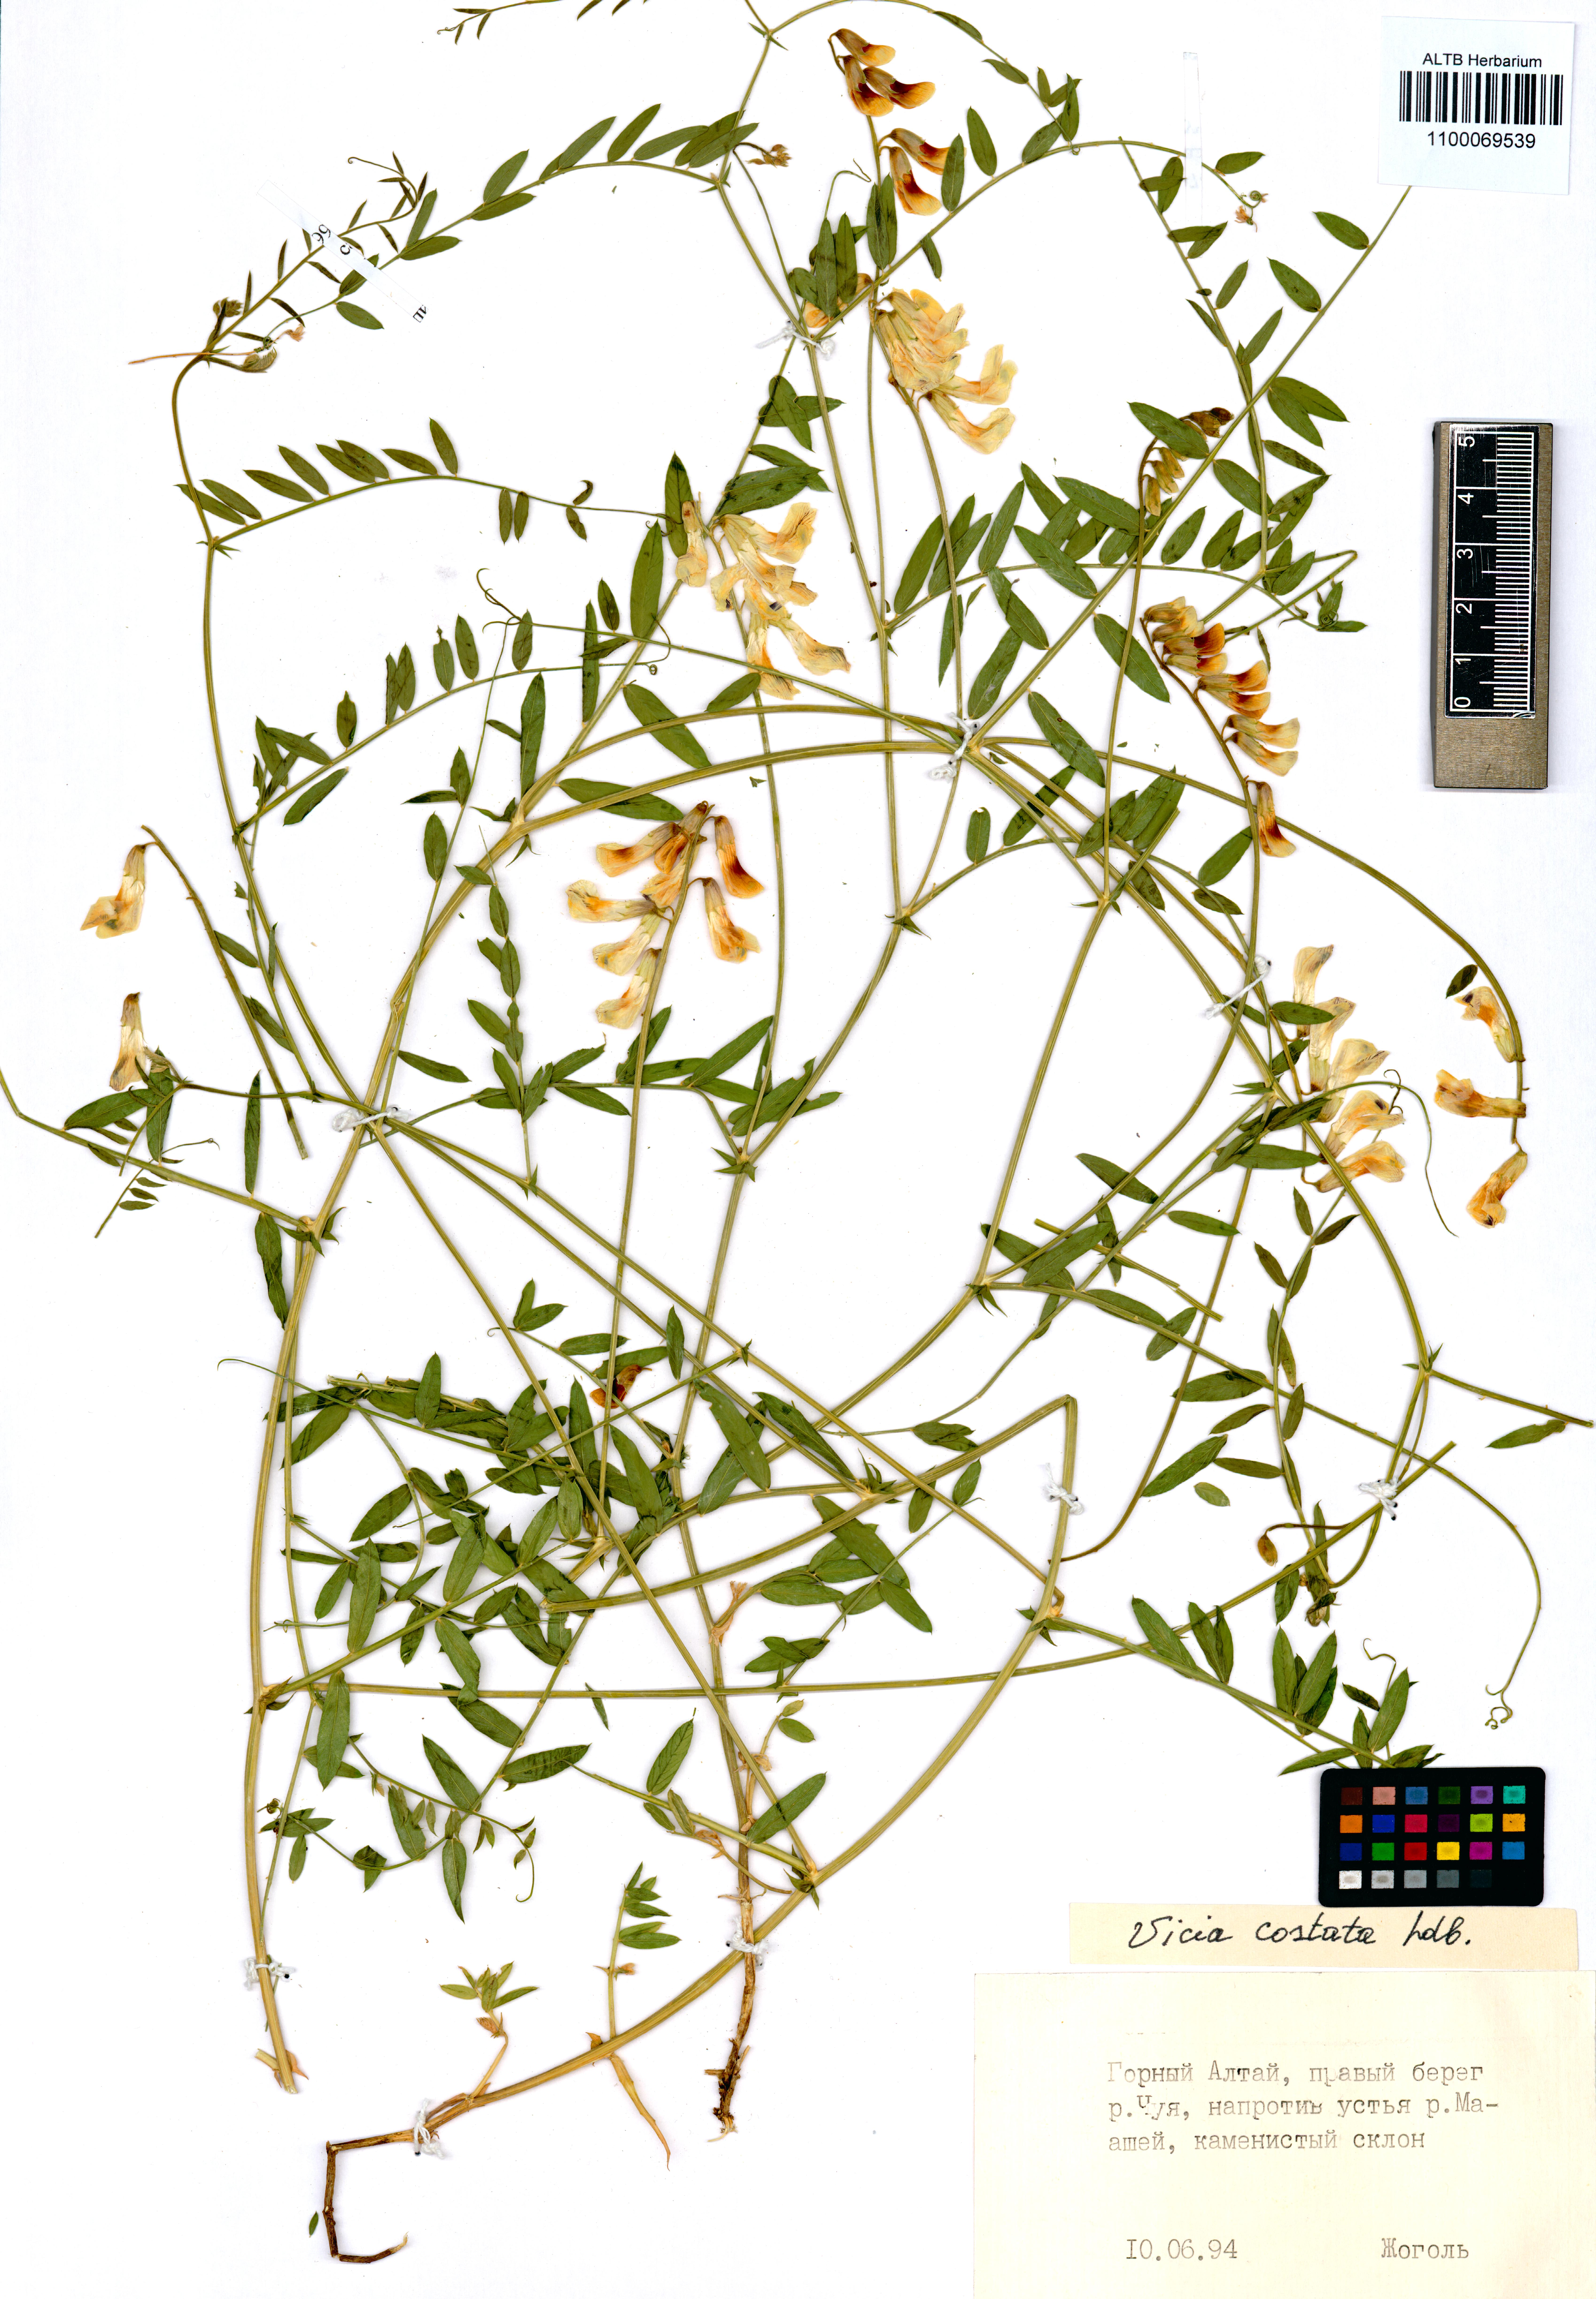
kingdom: Plantae
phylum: Tracheophyta
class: Magnoliopsida
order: Fabales
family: Fabaceae
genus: Vicia
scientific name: Vicia costata
